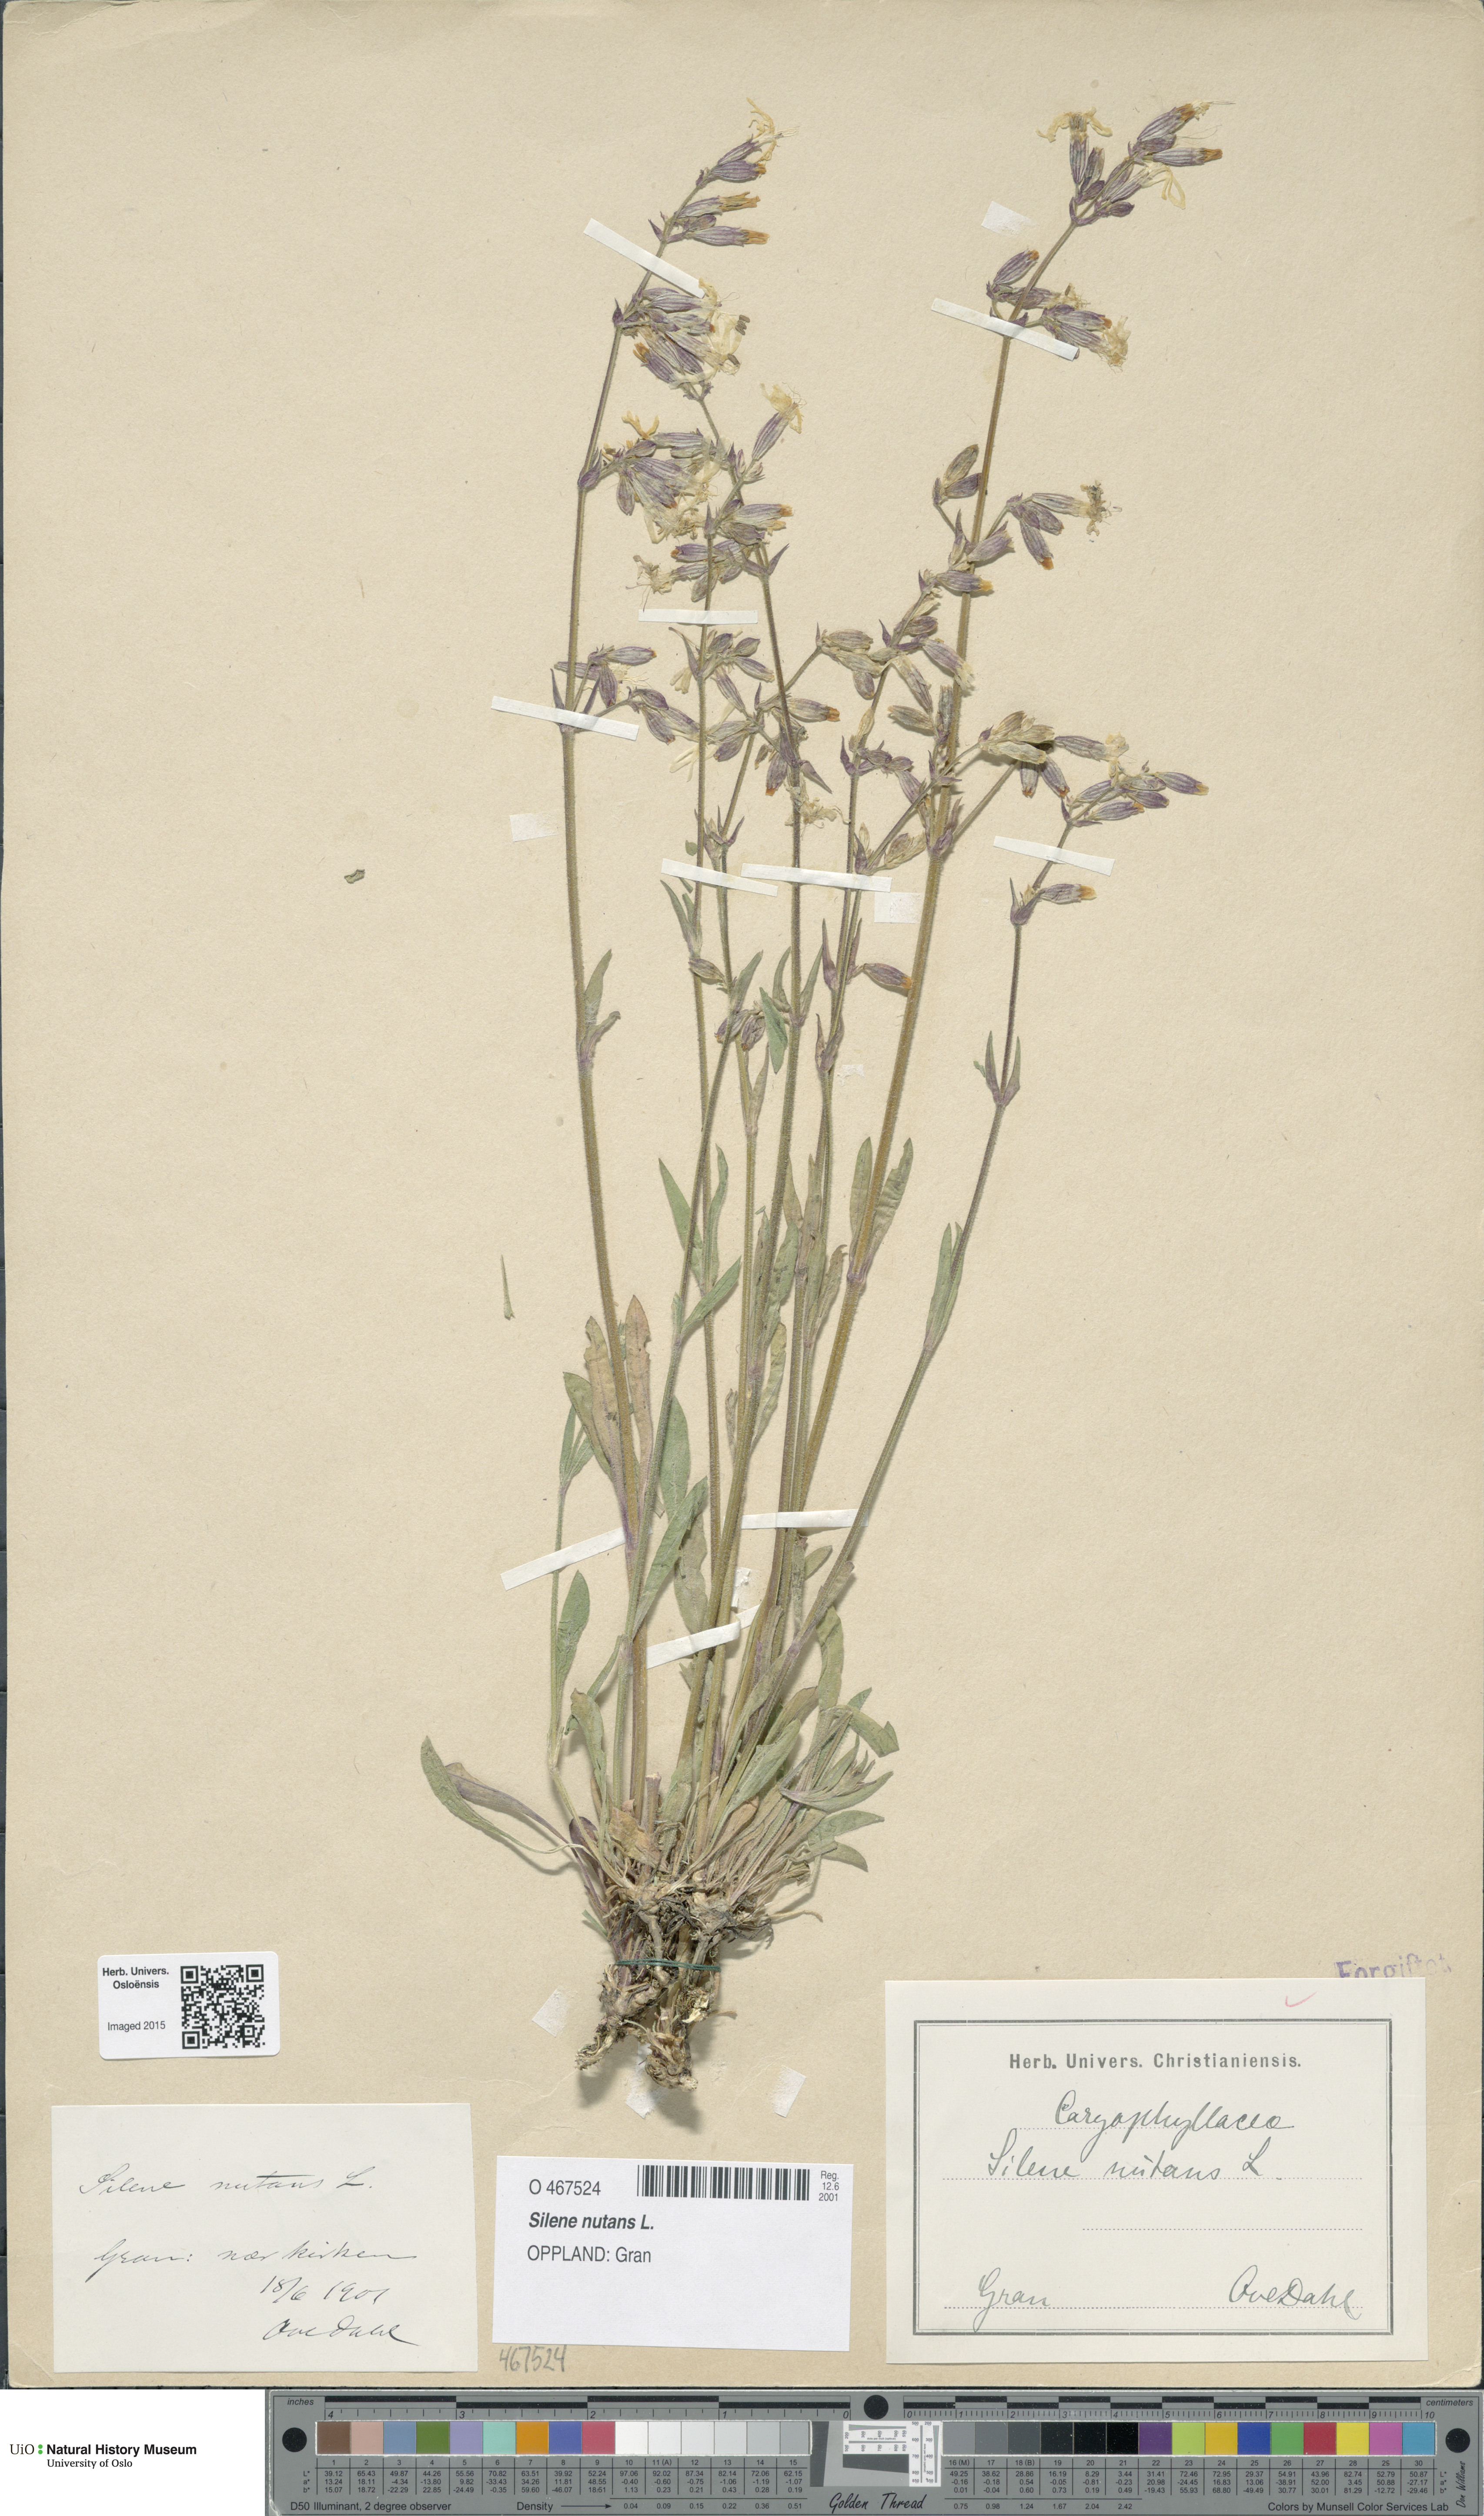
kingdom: Plantae
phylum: Tracheophyta
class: Magnoliopsida
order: Caryophyllales
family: Caryophyllaceae
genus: Silene
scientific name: Silene nutans
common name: Nottingham catchfly
